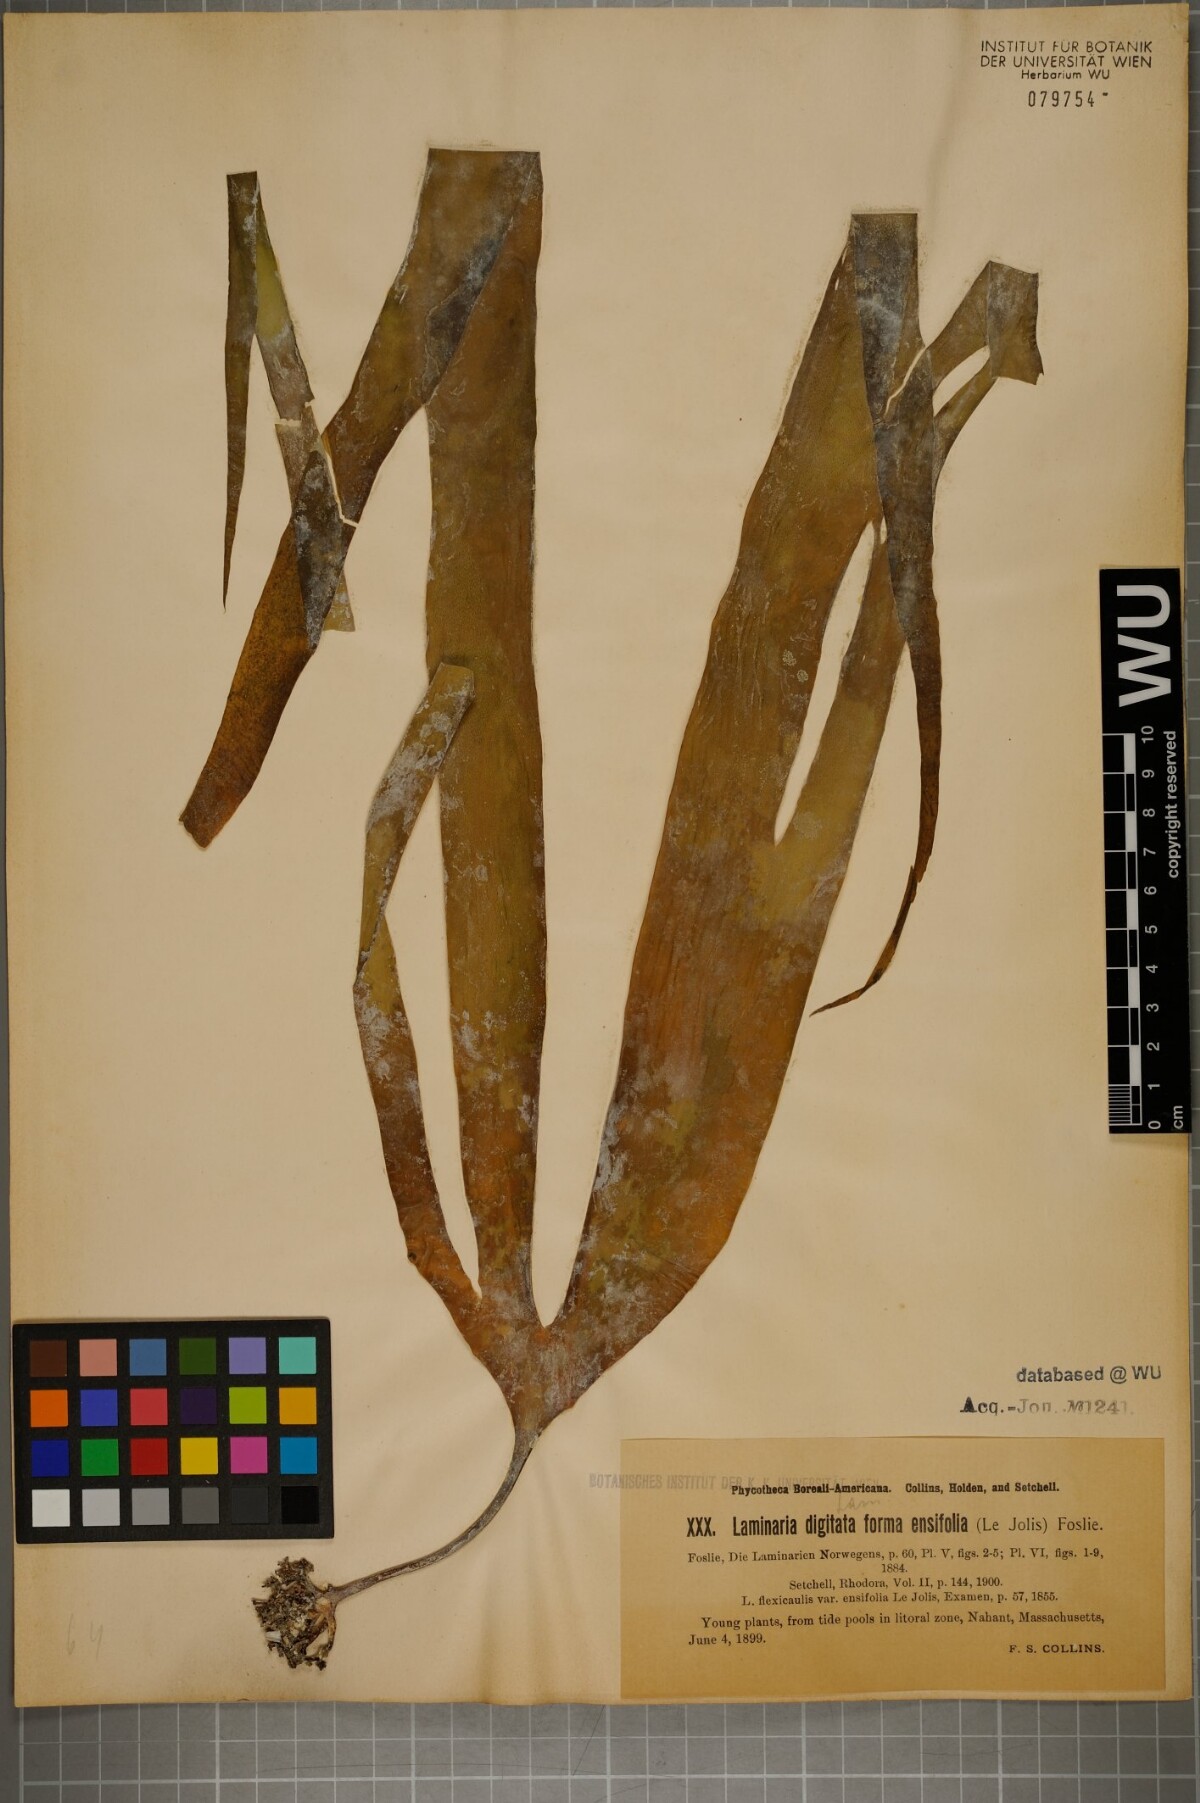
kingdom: Chromista
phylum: Ochrophyta
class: Phaeophyceae
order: Laminariales
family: Laminariaceae
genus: Laminaria
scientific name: Laminaria digitata
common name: Oarweed
